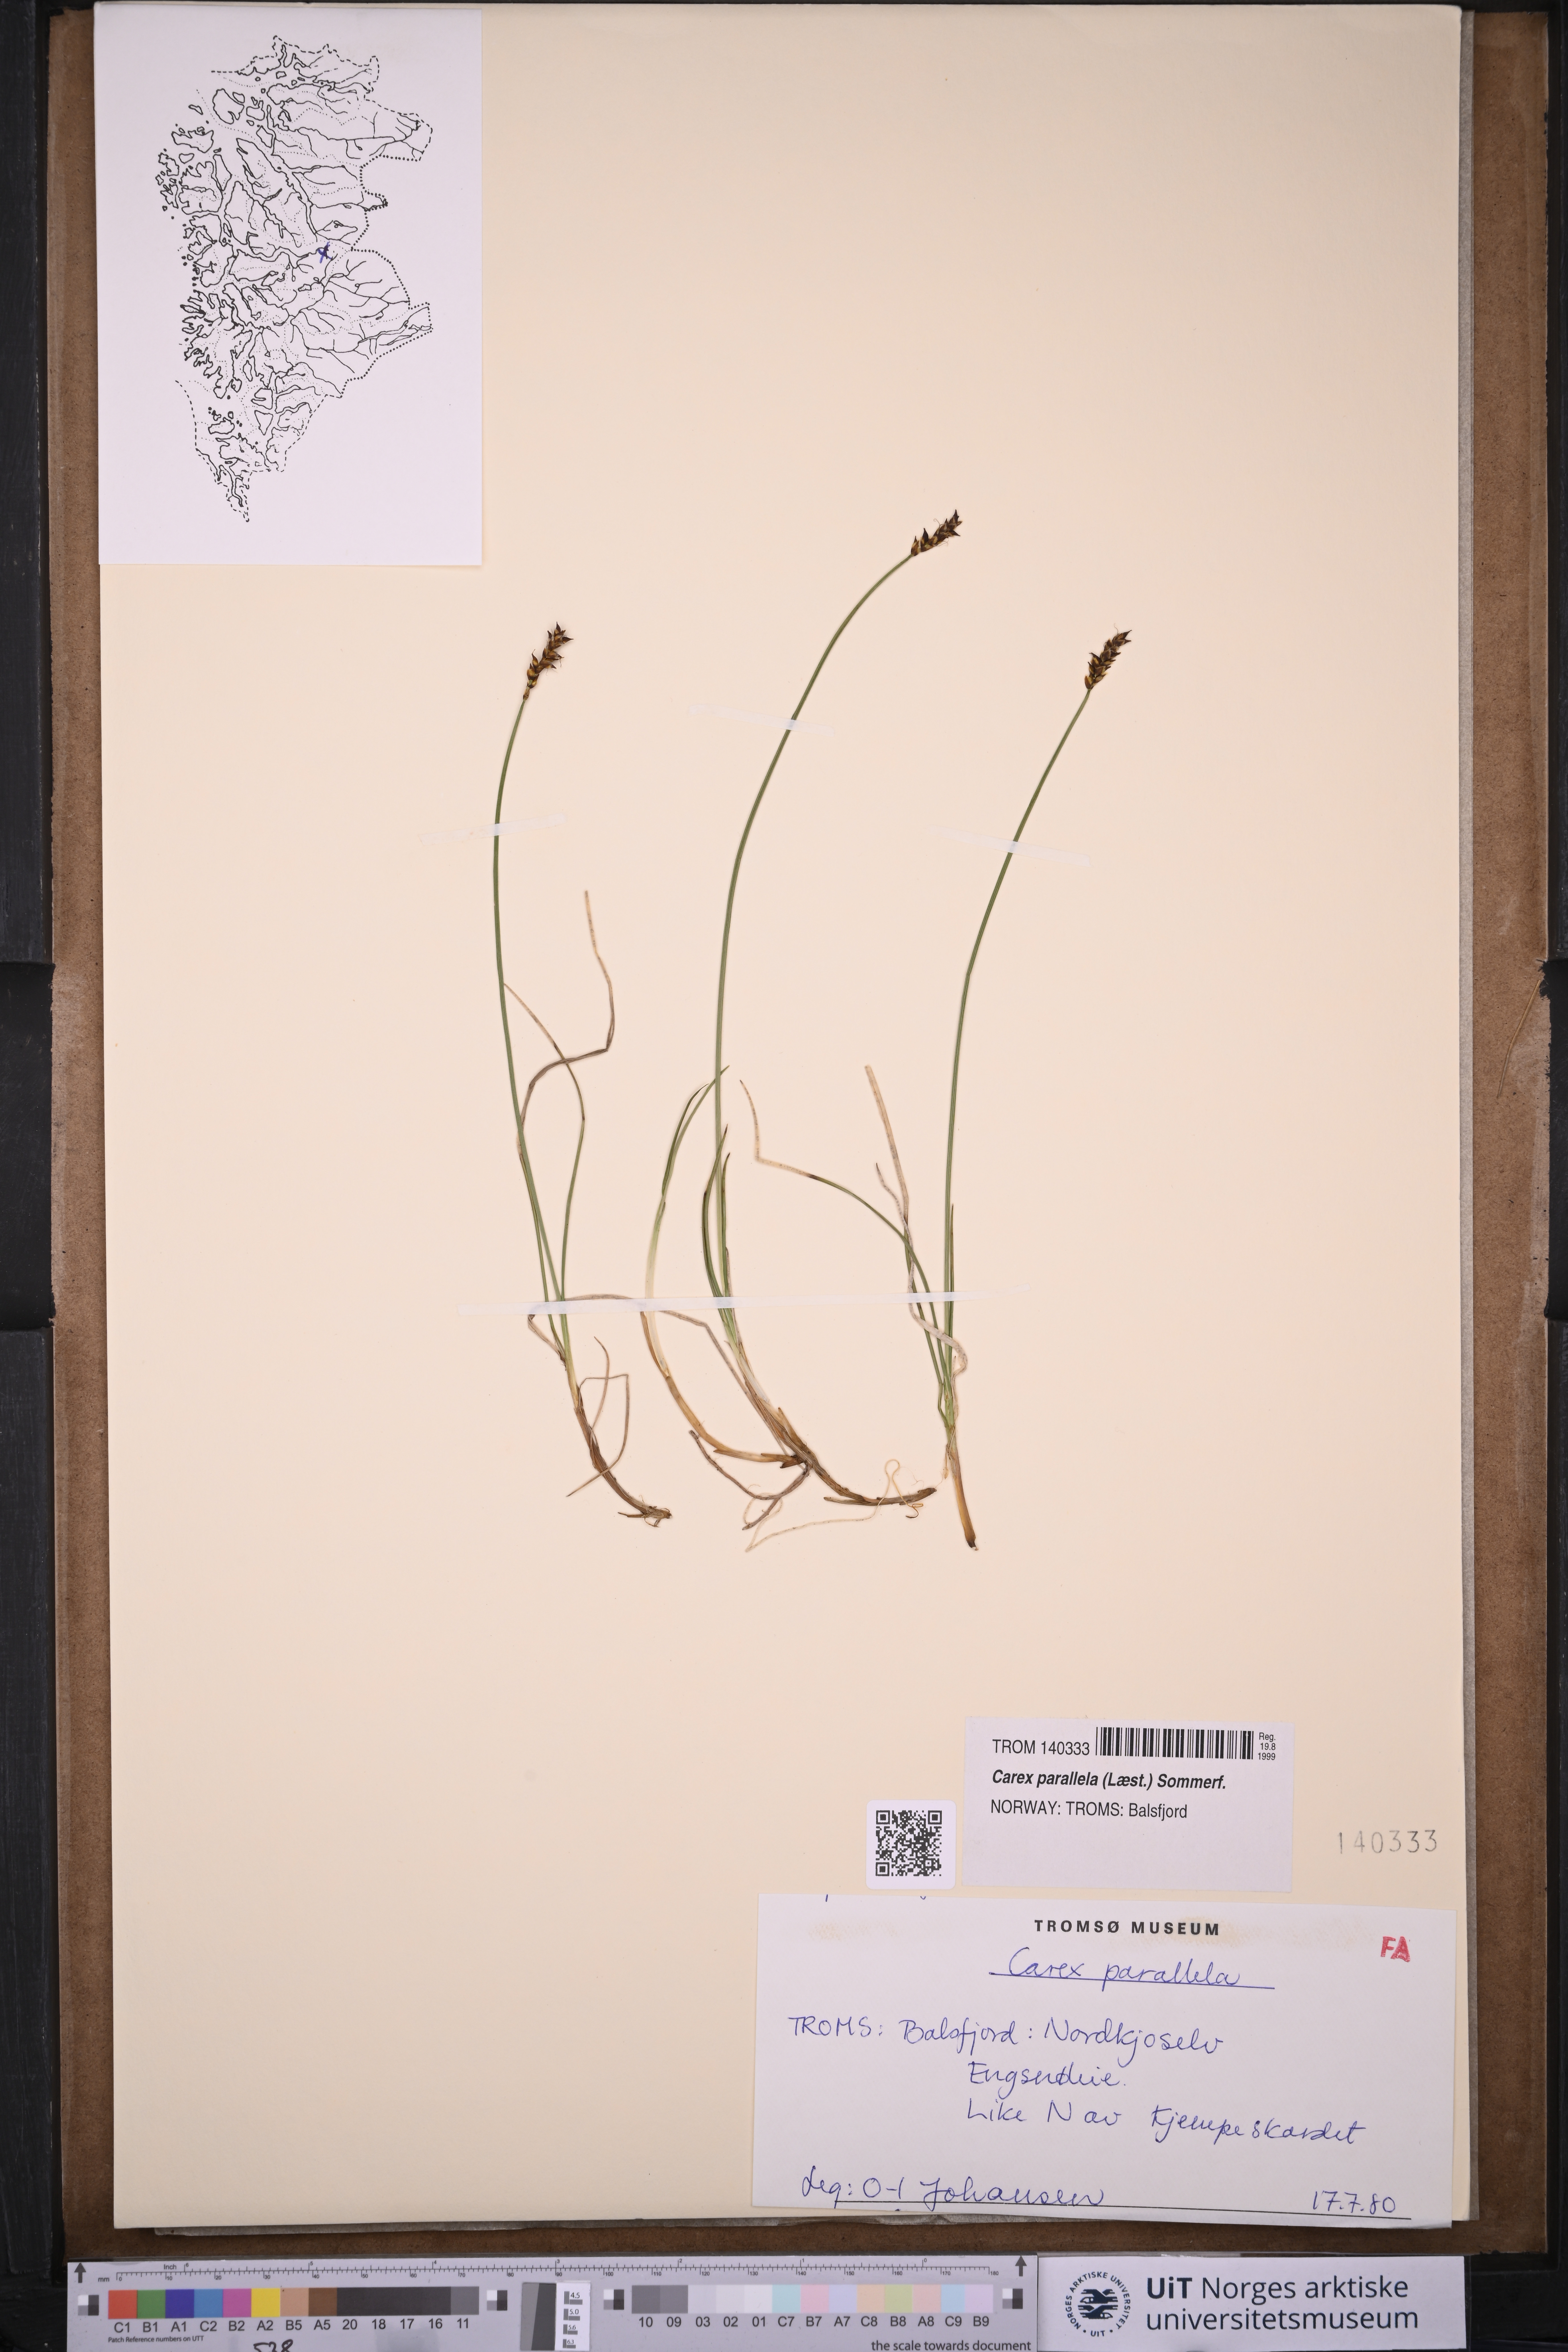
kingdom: Plantae
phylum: Tracheophyta
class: Liliopsida
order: Poales
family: Cyperaceae
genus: Carex
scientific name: Carex parallela
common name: Parallel sedge
